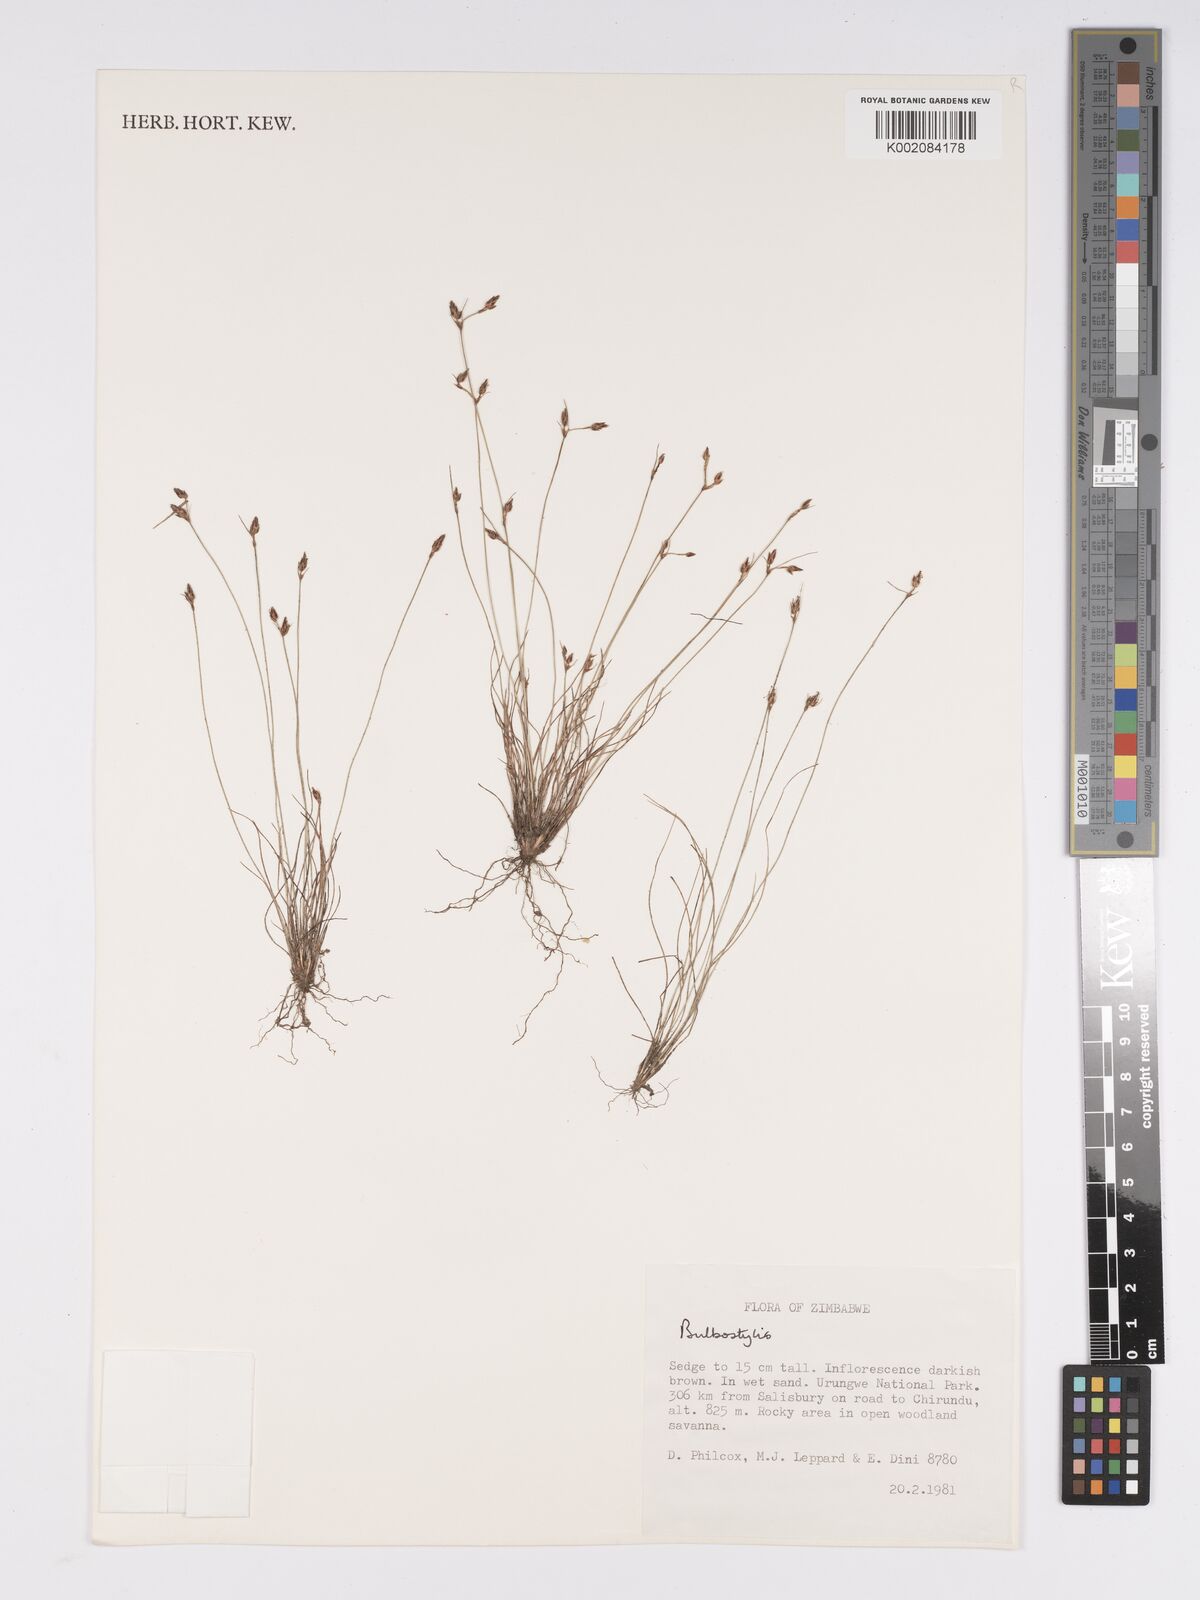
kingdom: Plantae
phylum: Tracheophyta
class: Liliopsida
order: Poales
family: Cyperaceae
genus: Bulbostylis
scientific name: Bulbostylis
